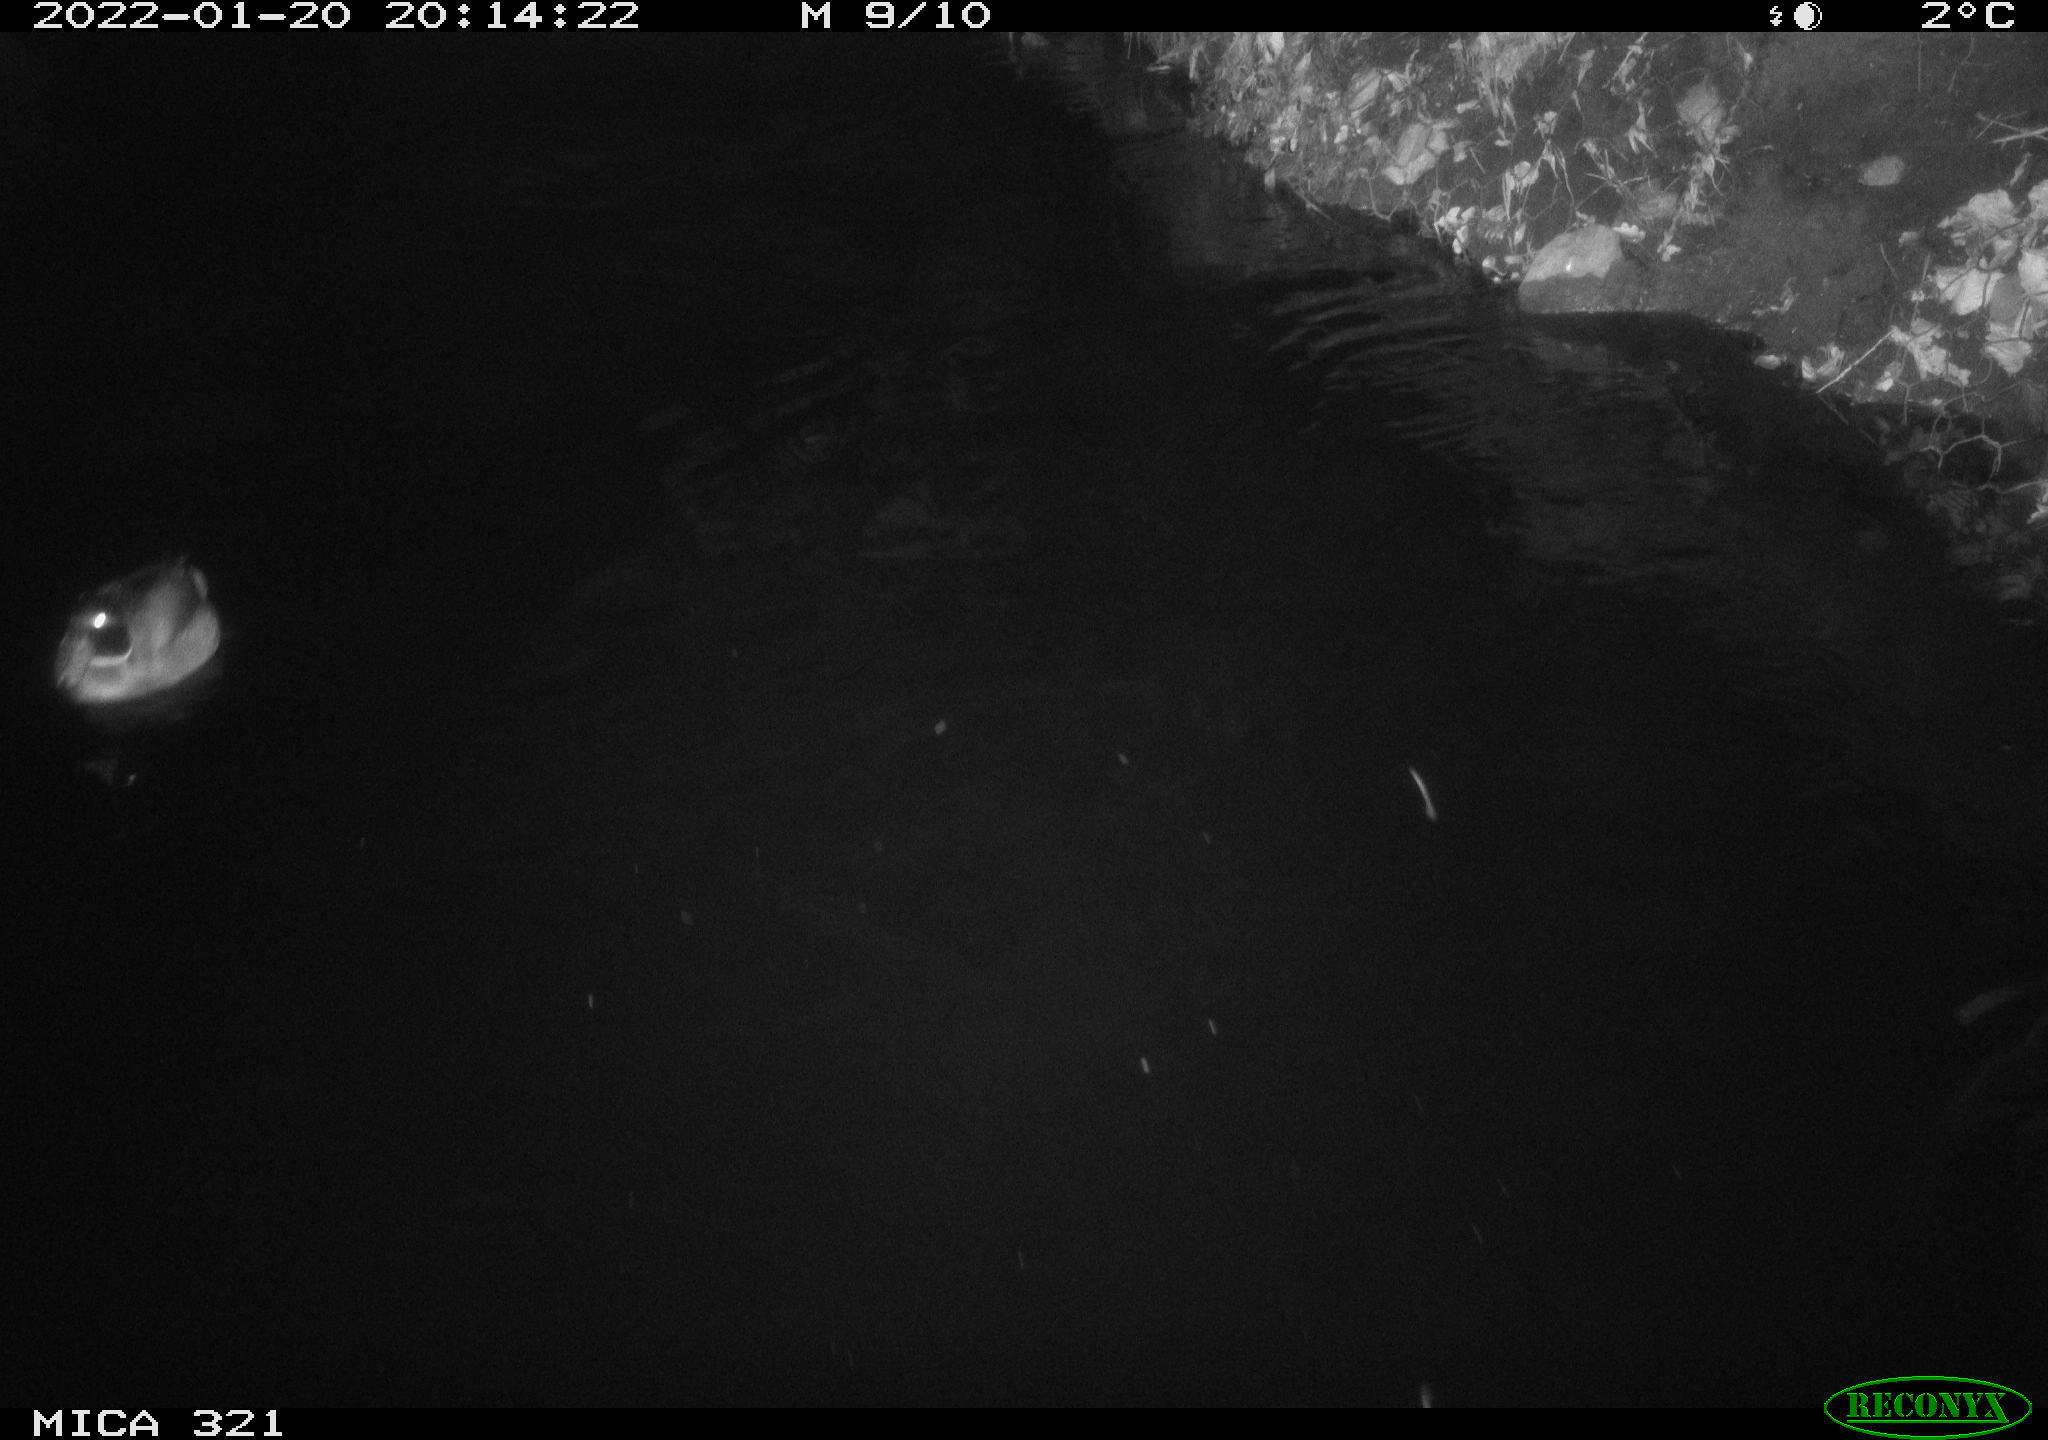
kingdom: Animalia
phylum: Chordata
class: Aves
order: Gruiformes
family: Rallidae
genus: Fulica
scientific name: Fulica atra
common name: Eurasian coot
